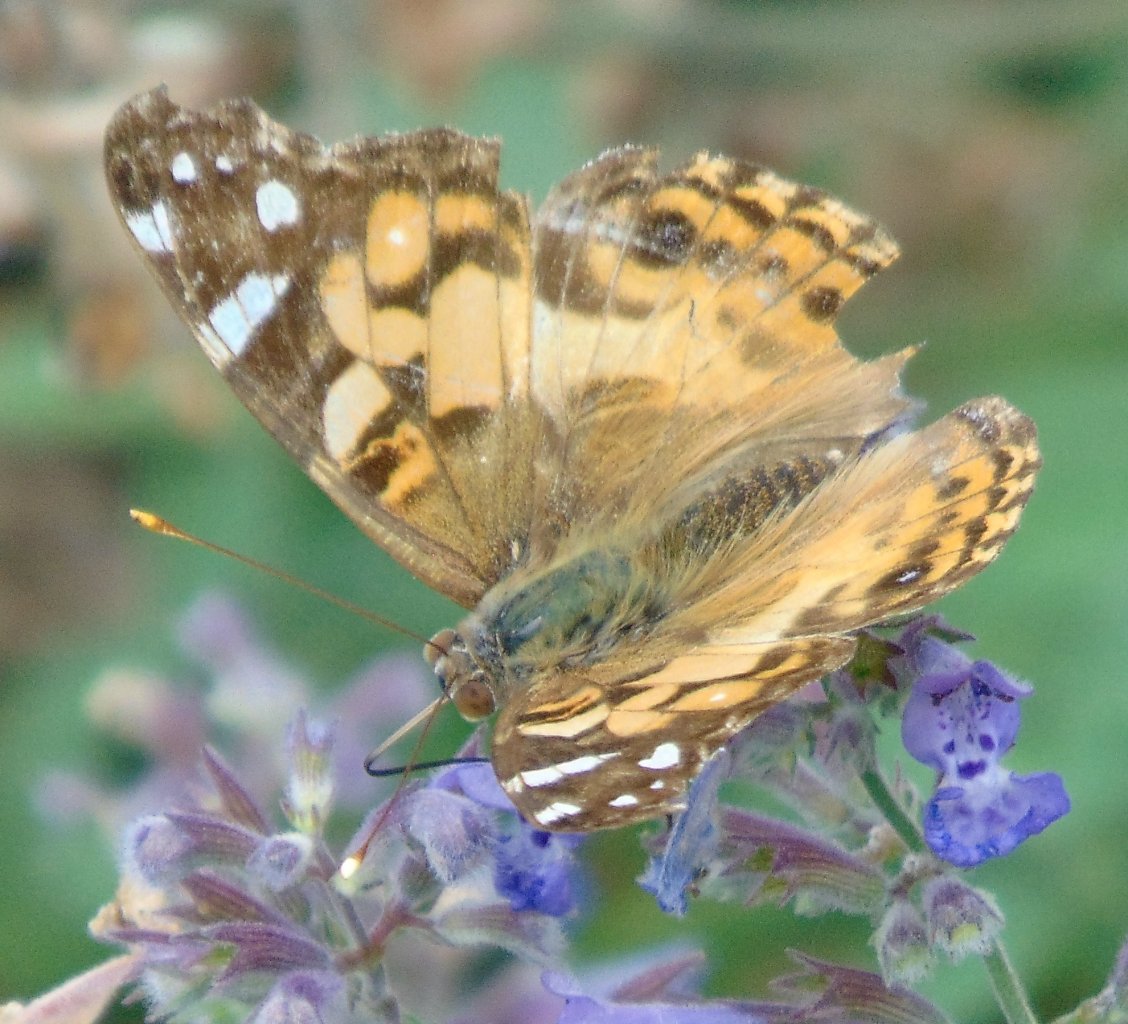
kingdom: Animalia
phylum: Arthropoda
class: Insecta
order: Lepidoptera
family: Nymphalidae
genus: Vanessa
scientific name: Vanessa virginiensis
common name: American Lady
